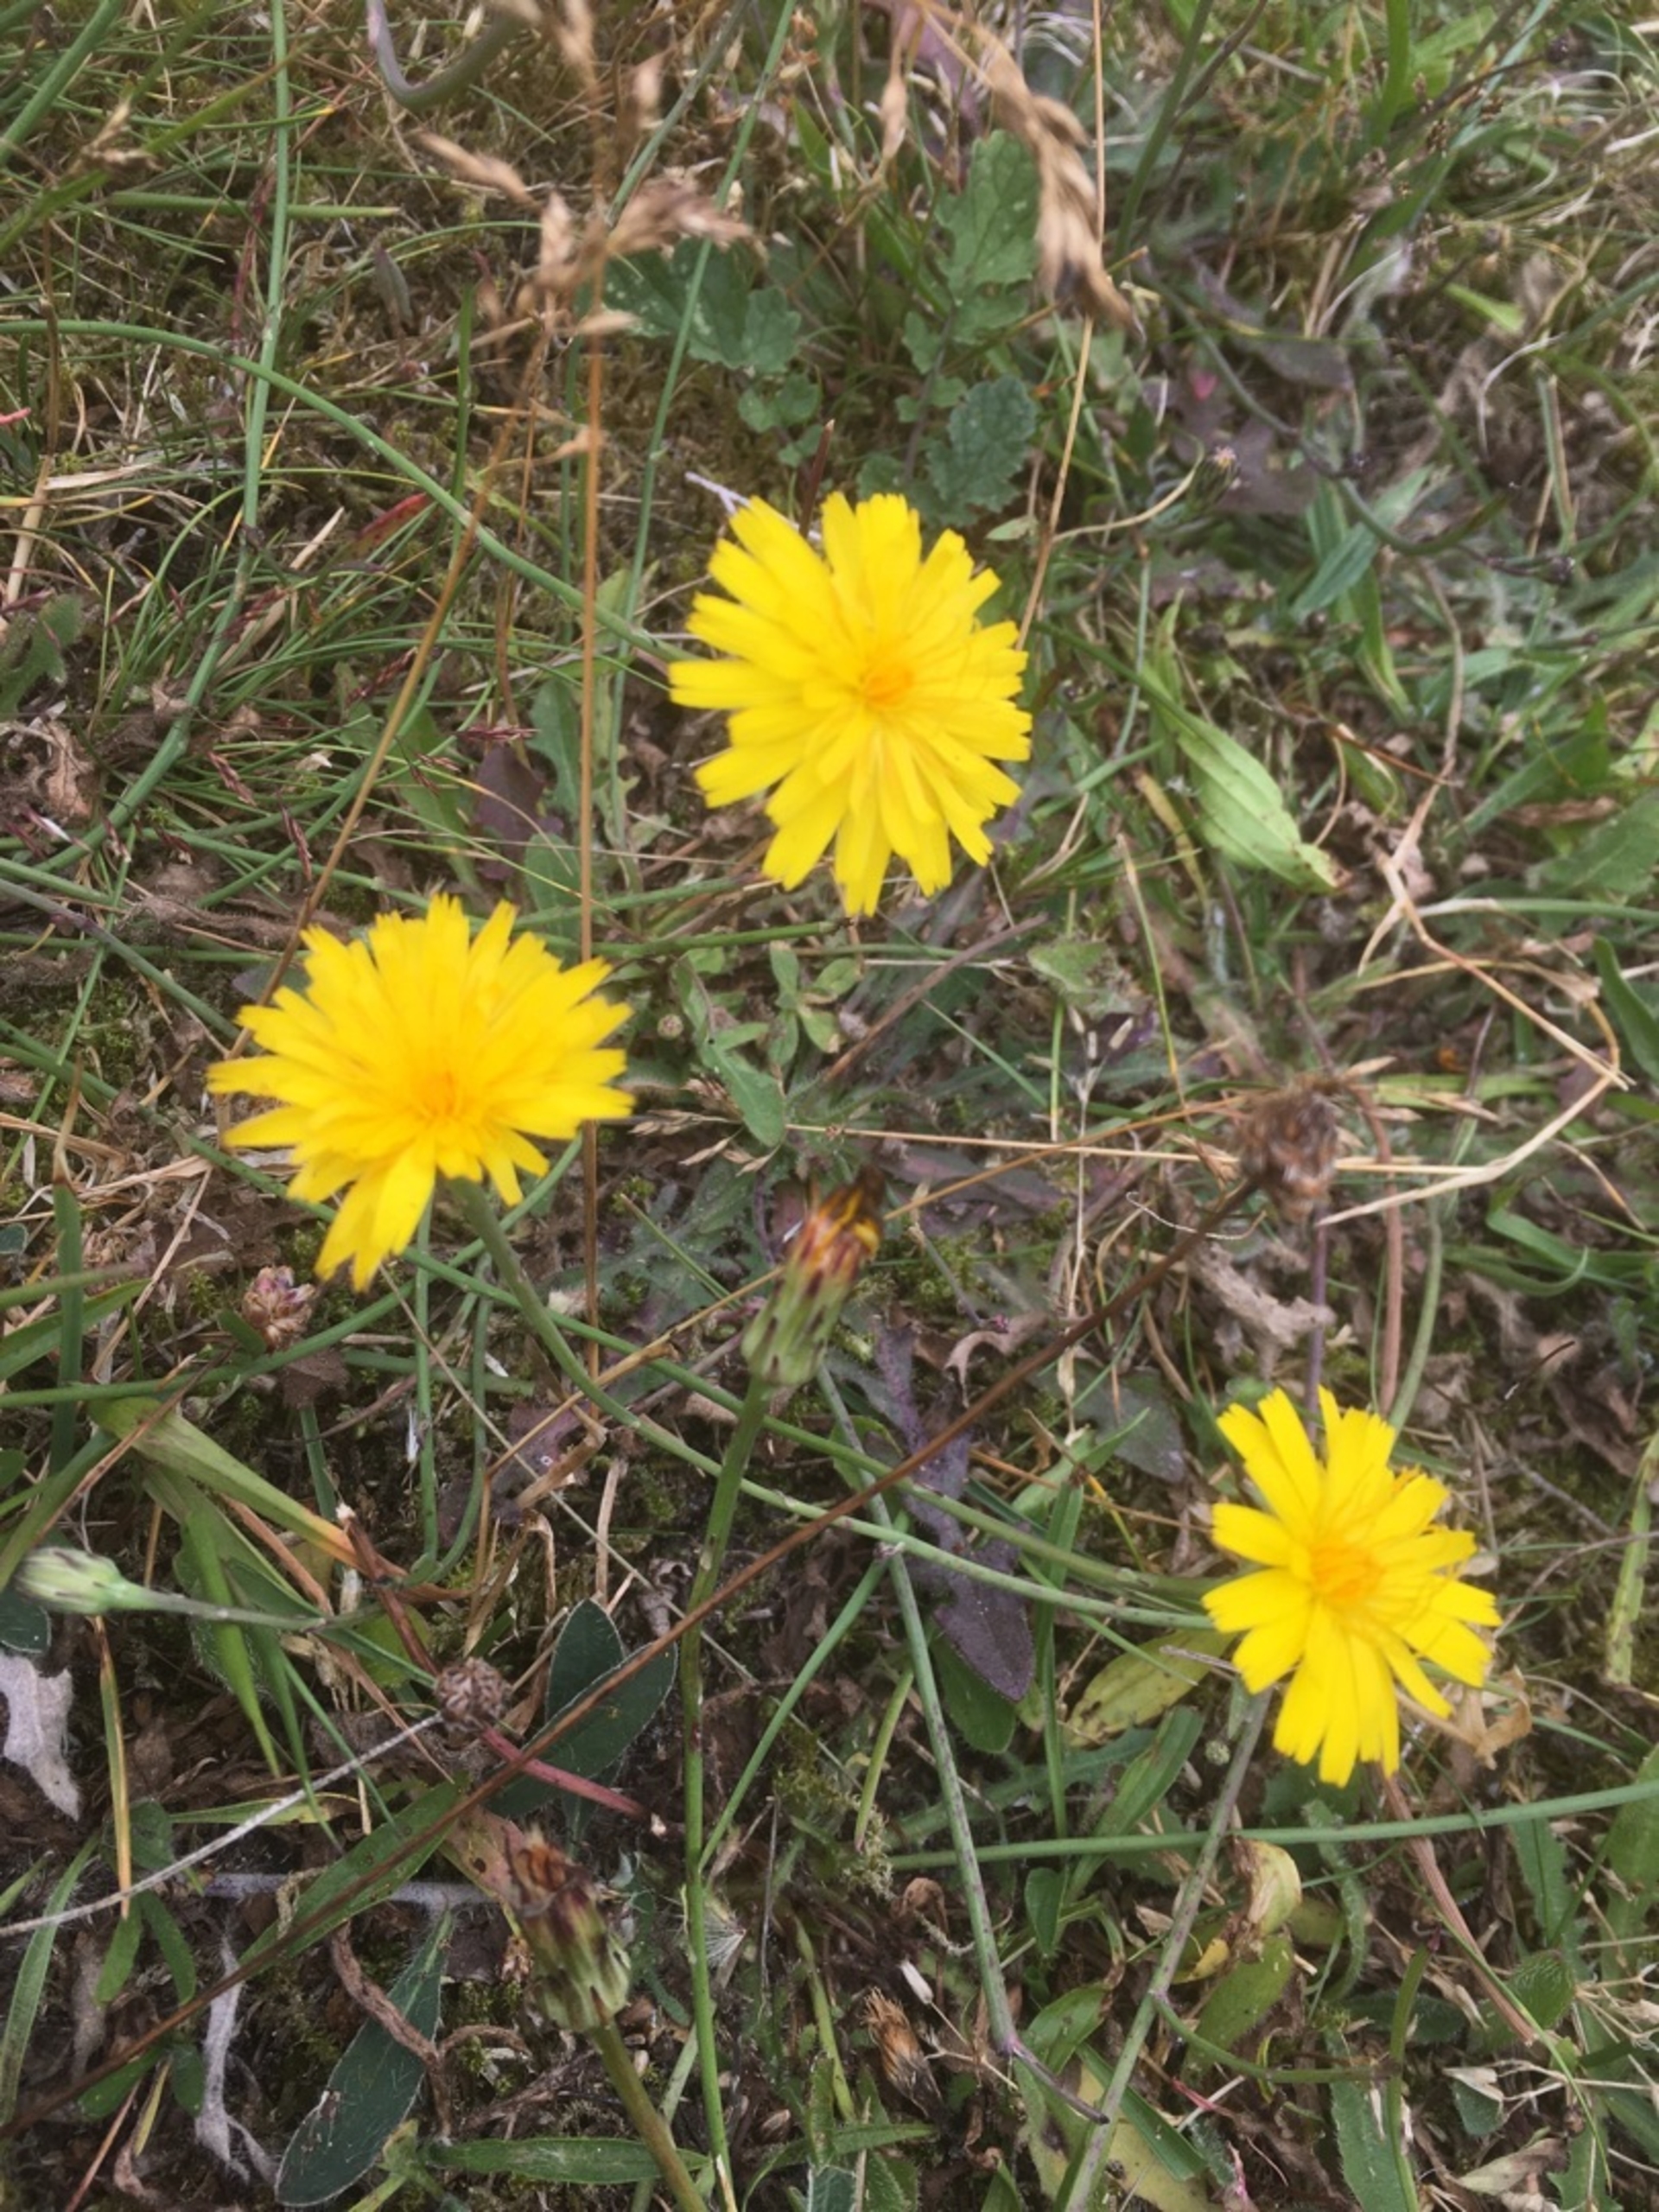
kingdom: Plantae
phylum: Tracheophyta
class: Magnoliopsida
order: Asterales
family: Asteraceae
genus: Hypochaeris
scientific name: Hypochaeris radicata
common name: Almindelig kongepen
